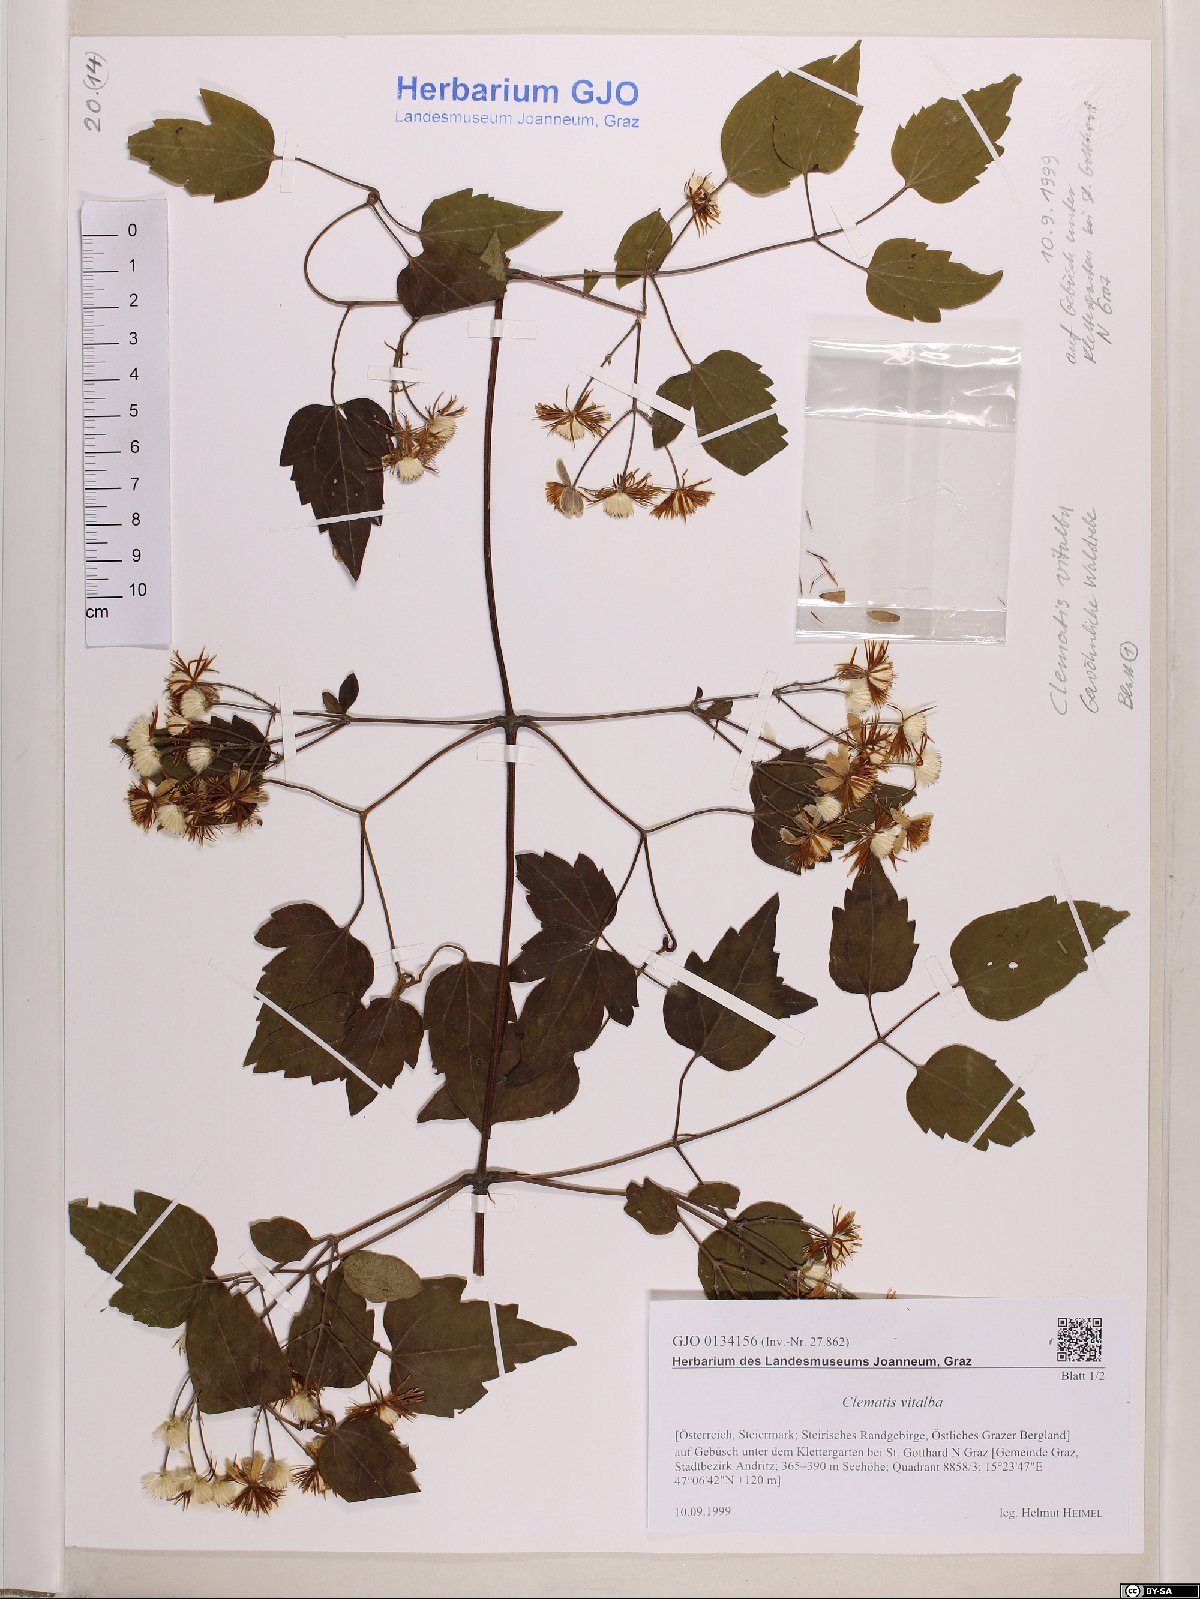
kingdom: Plantae
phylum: Tracheophyta
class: Magnoliopsida
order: Ranunculales
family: Ranunculaceae
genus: Clematis
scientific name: Clematis vitalba
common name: Evergreen clematis
